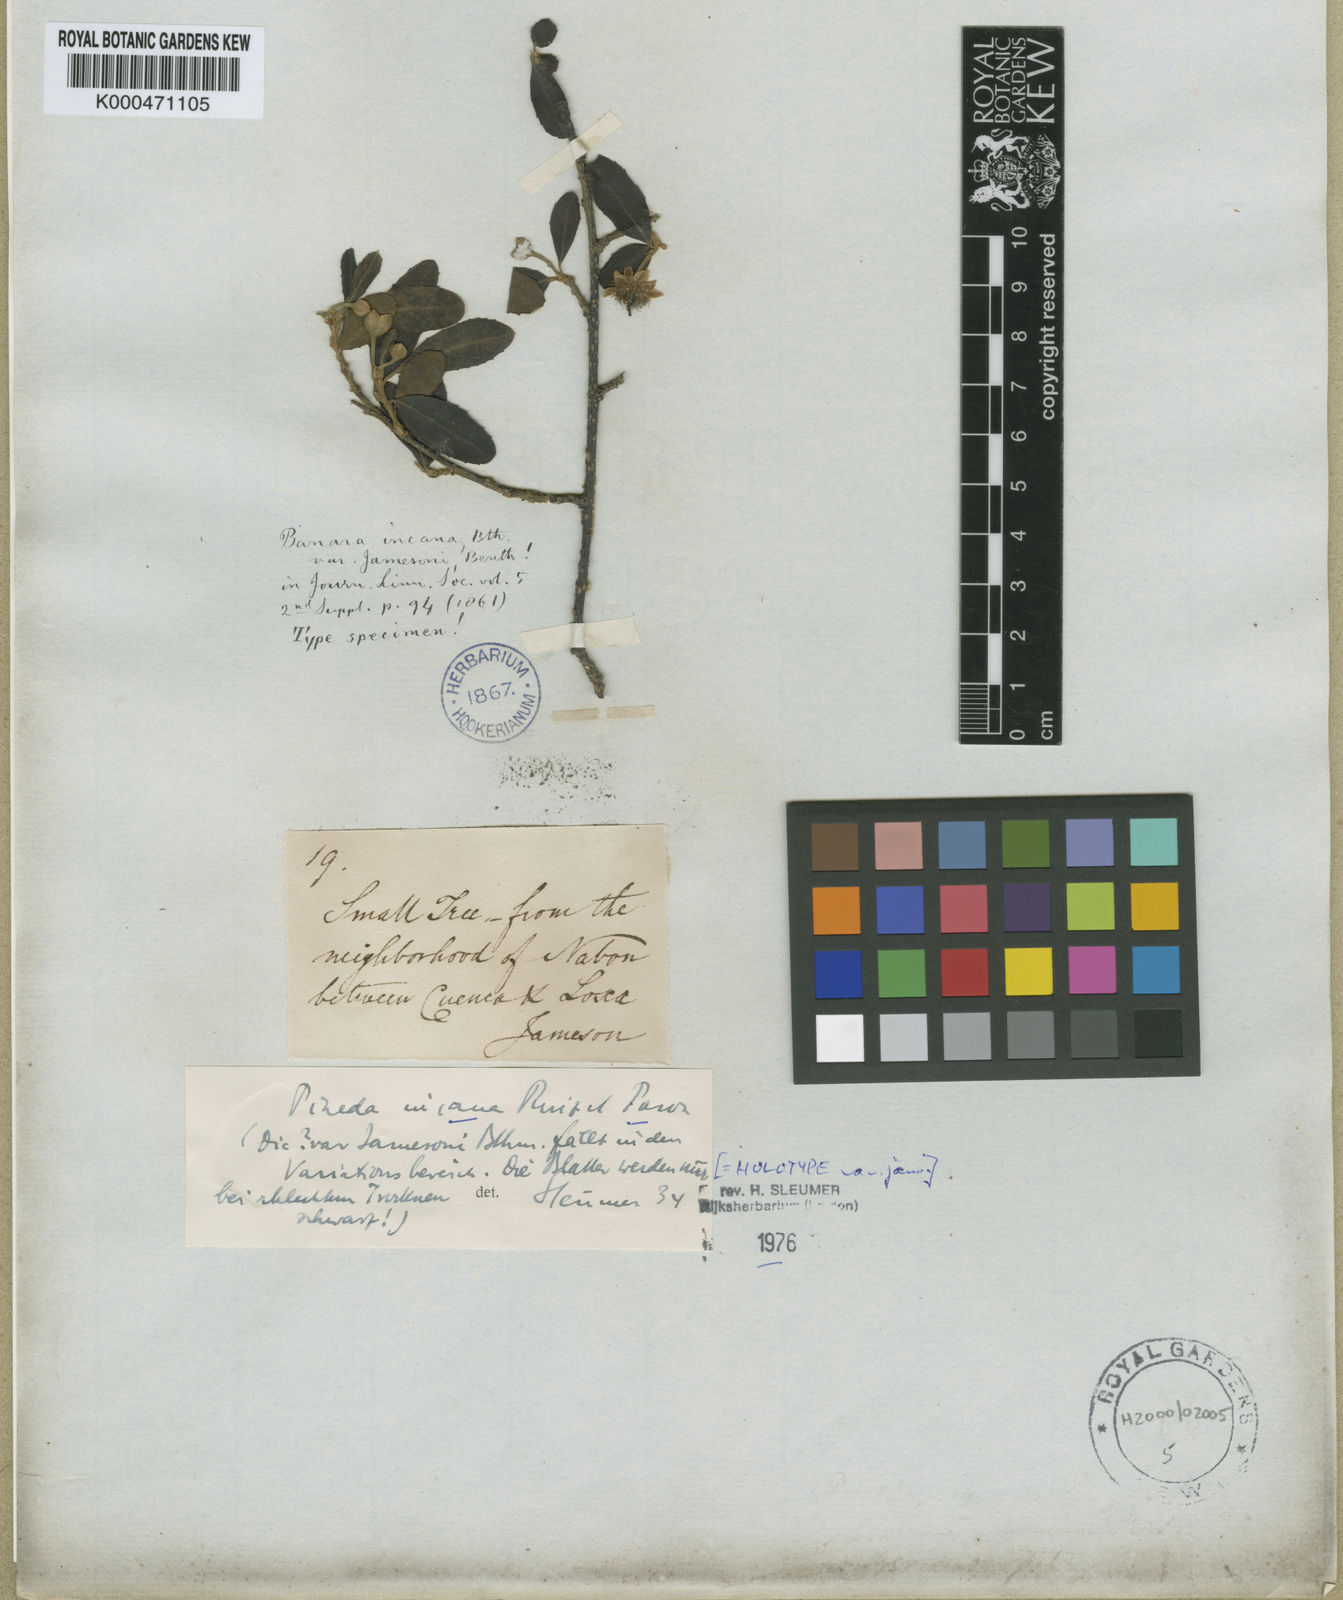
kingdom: Plantae
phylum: Tracheophyta
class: Magnoliopsida
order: Malpighiales
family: Salicaceae
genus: Pineda
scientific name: Pineda incana
